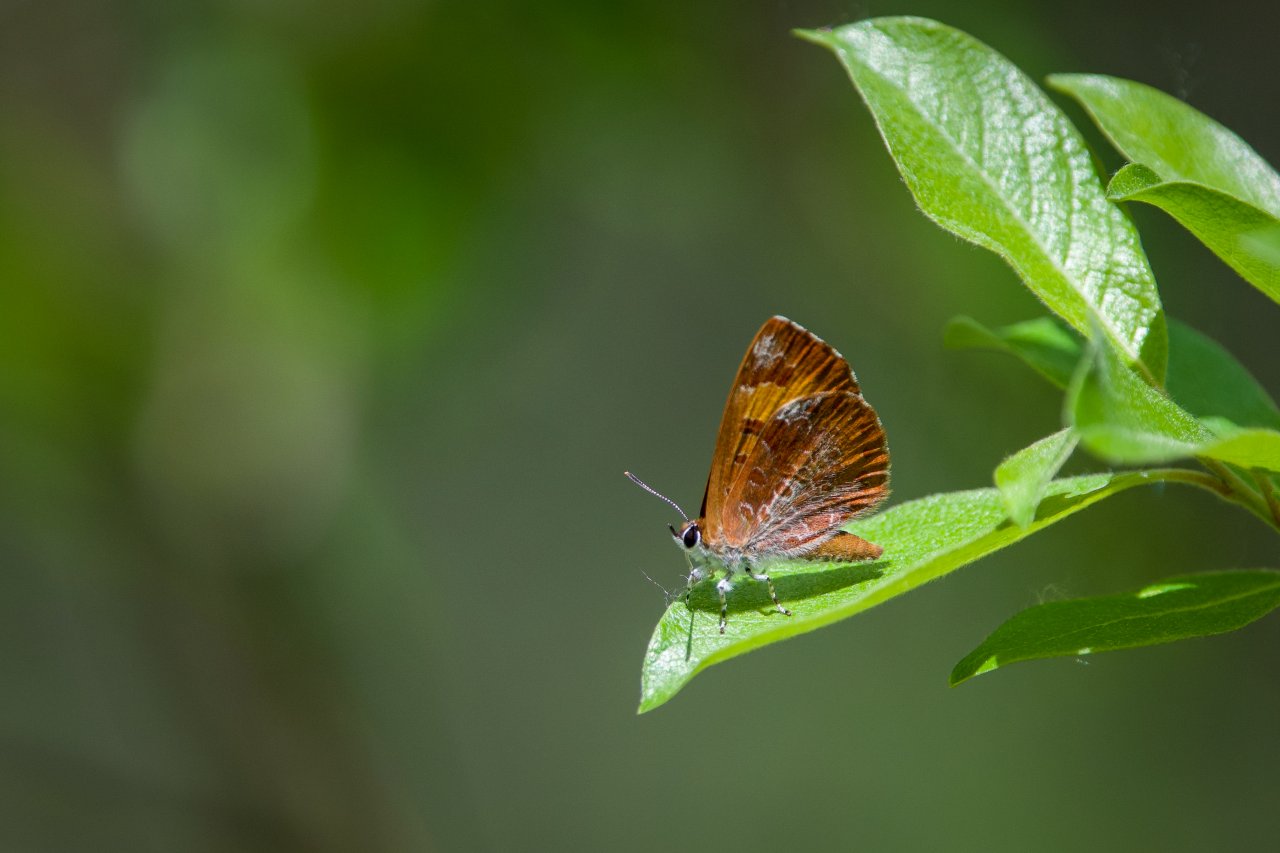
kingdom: Animalia
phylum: Arthropoda
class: Insecta
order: Lepidoptera
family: Lycaenidae
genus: Feniseca
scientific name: Feniseca tarquinius
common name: Harvester
